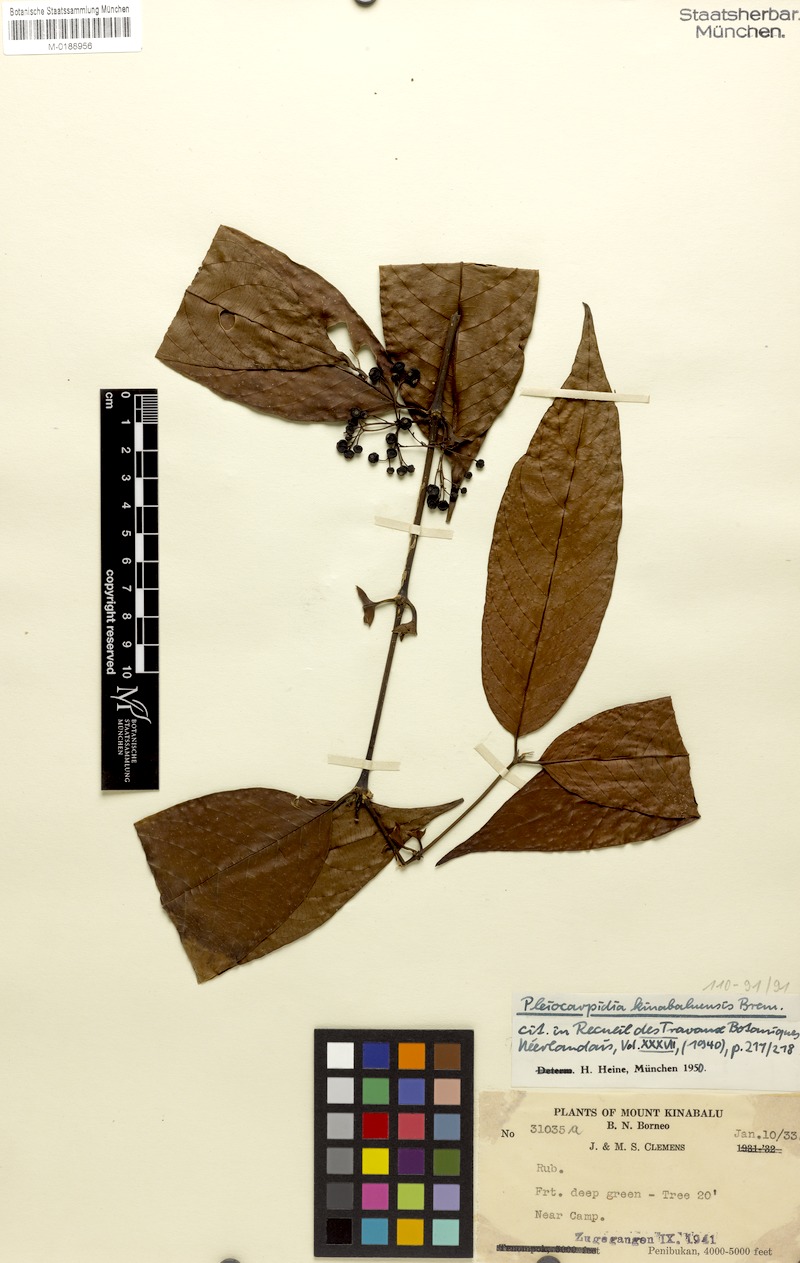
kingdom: Plantae
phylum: Tracheophyta
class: Magnoliopsida
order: Gentianales
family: Rubiaceae
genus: Urophyllum
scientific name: Urophyllum kinabaluense
